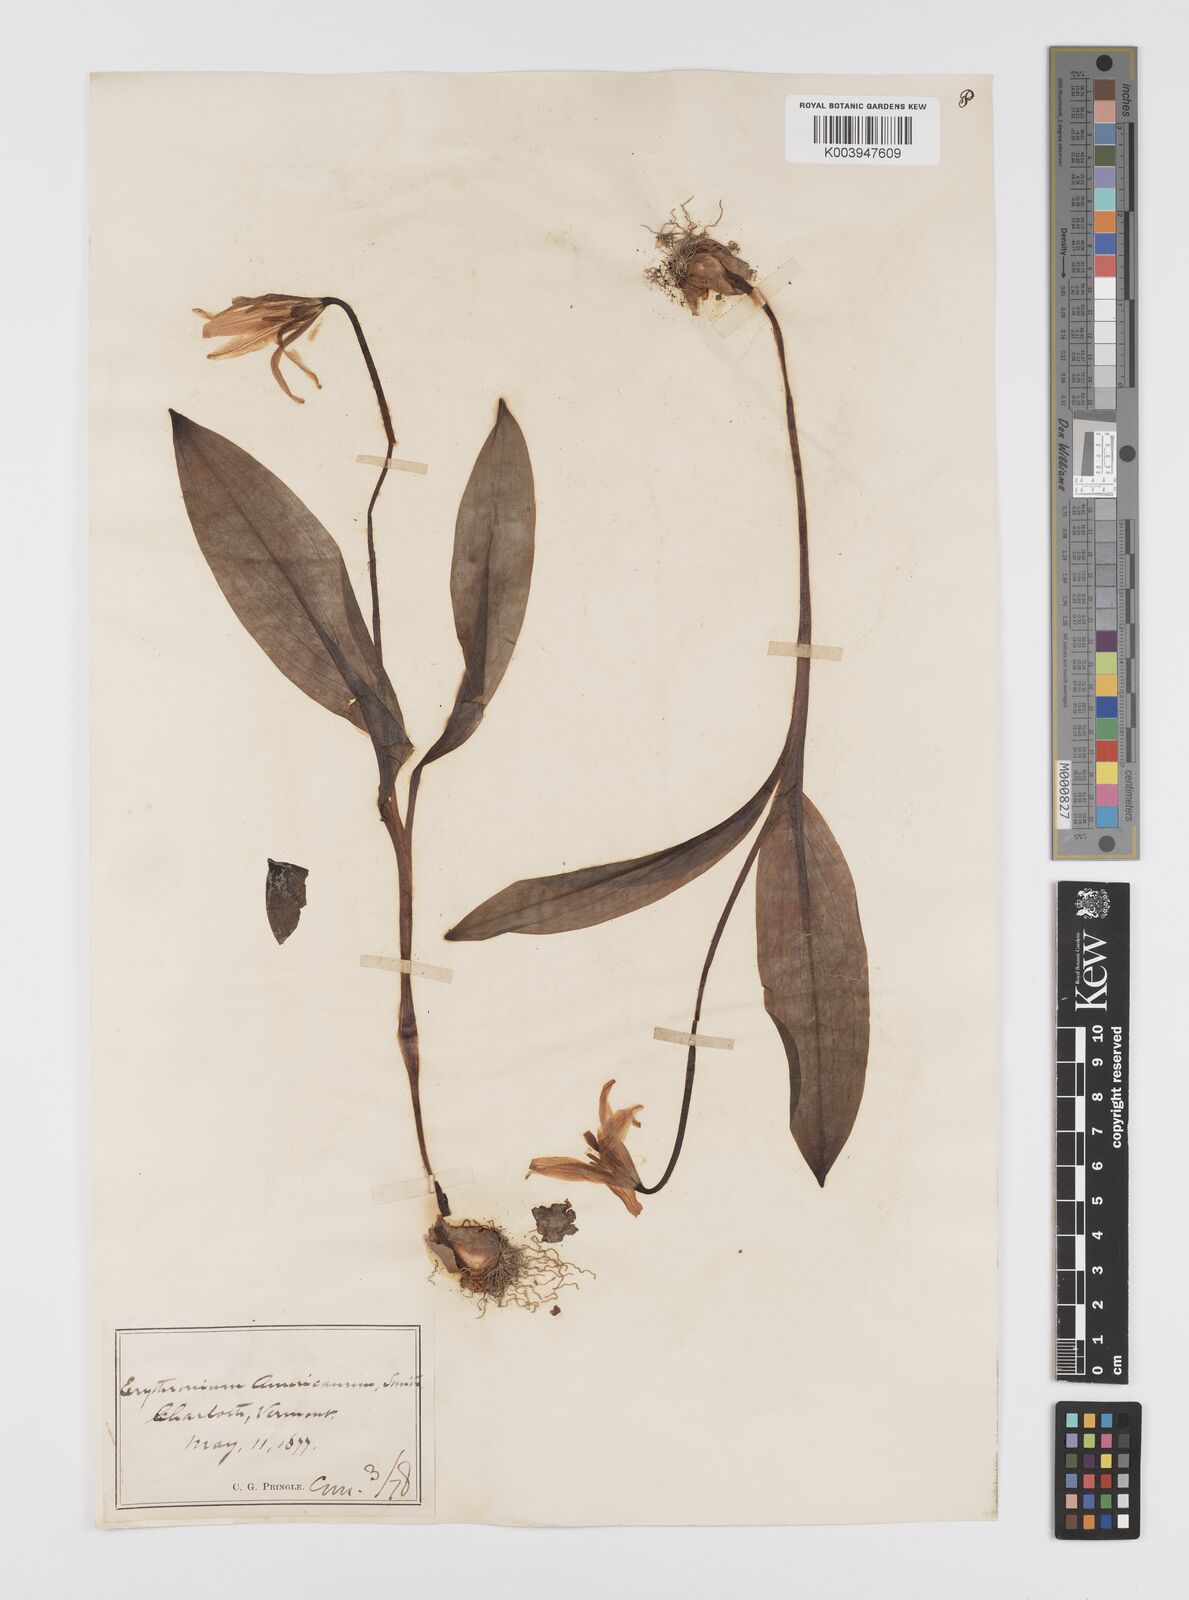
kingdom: Plantae
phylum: Tracheophyta
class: Liliopsida
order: Liliales
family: Liliaceae
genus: Erythronium
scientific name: Erythronium grandiflorum
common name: Avalanche-lily
